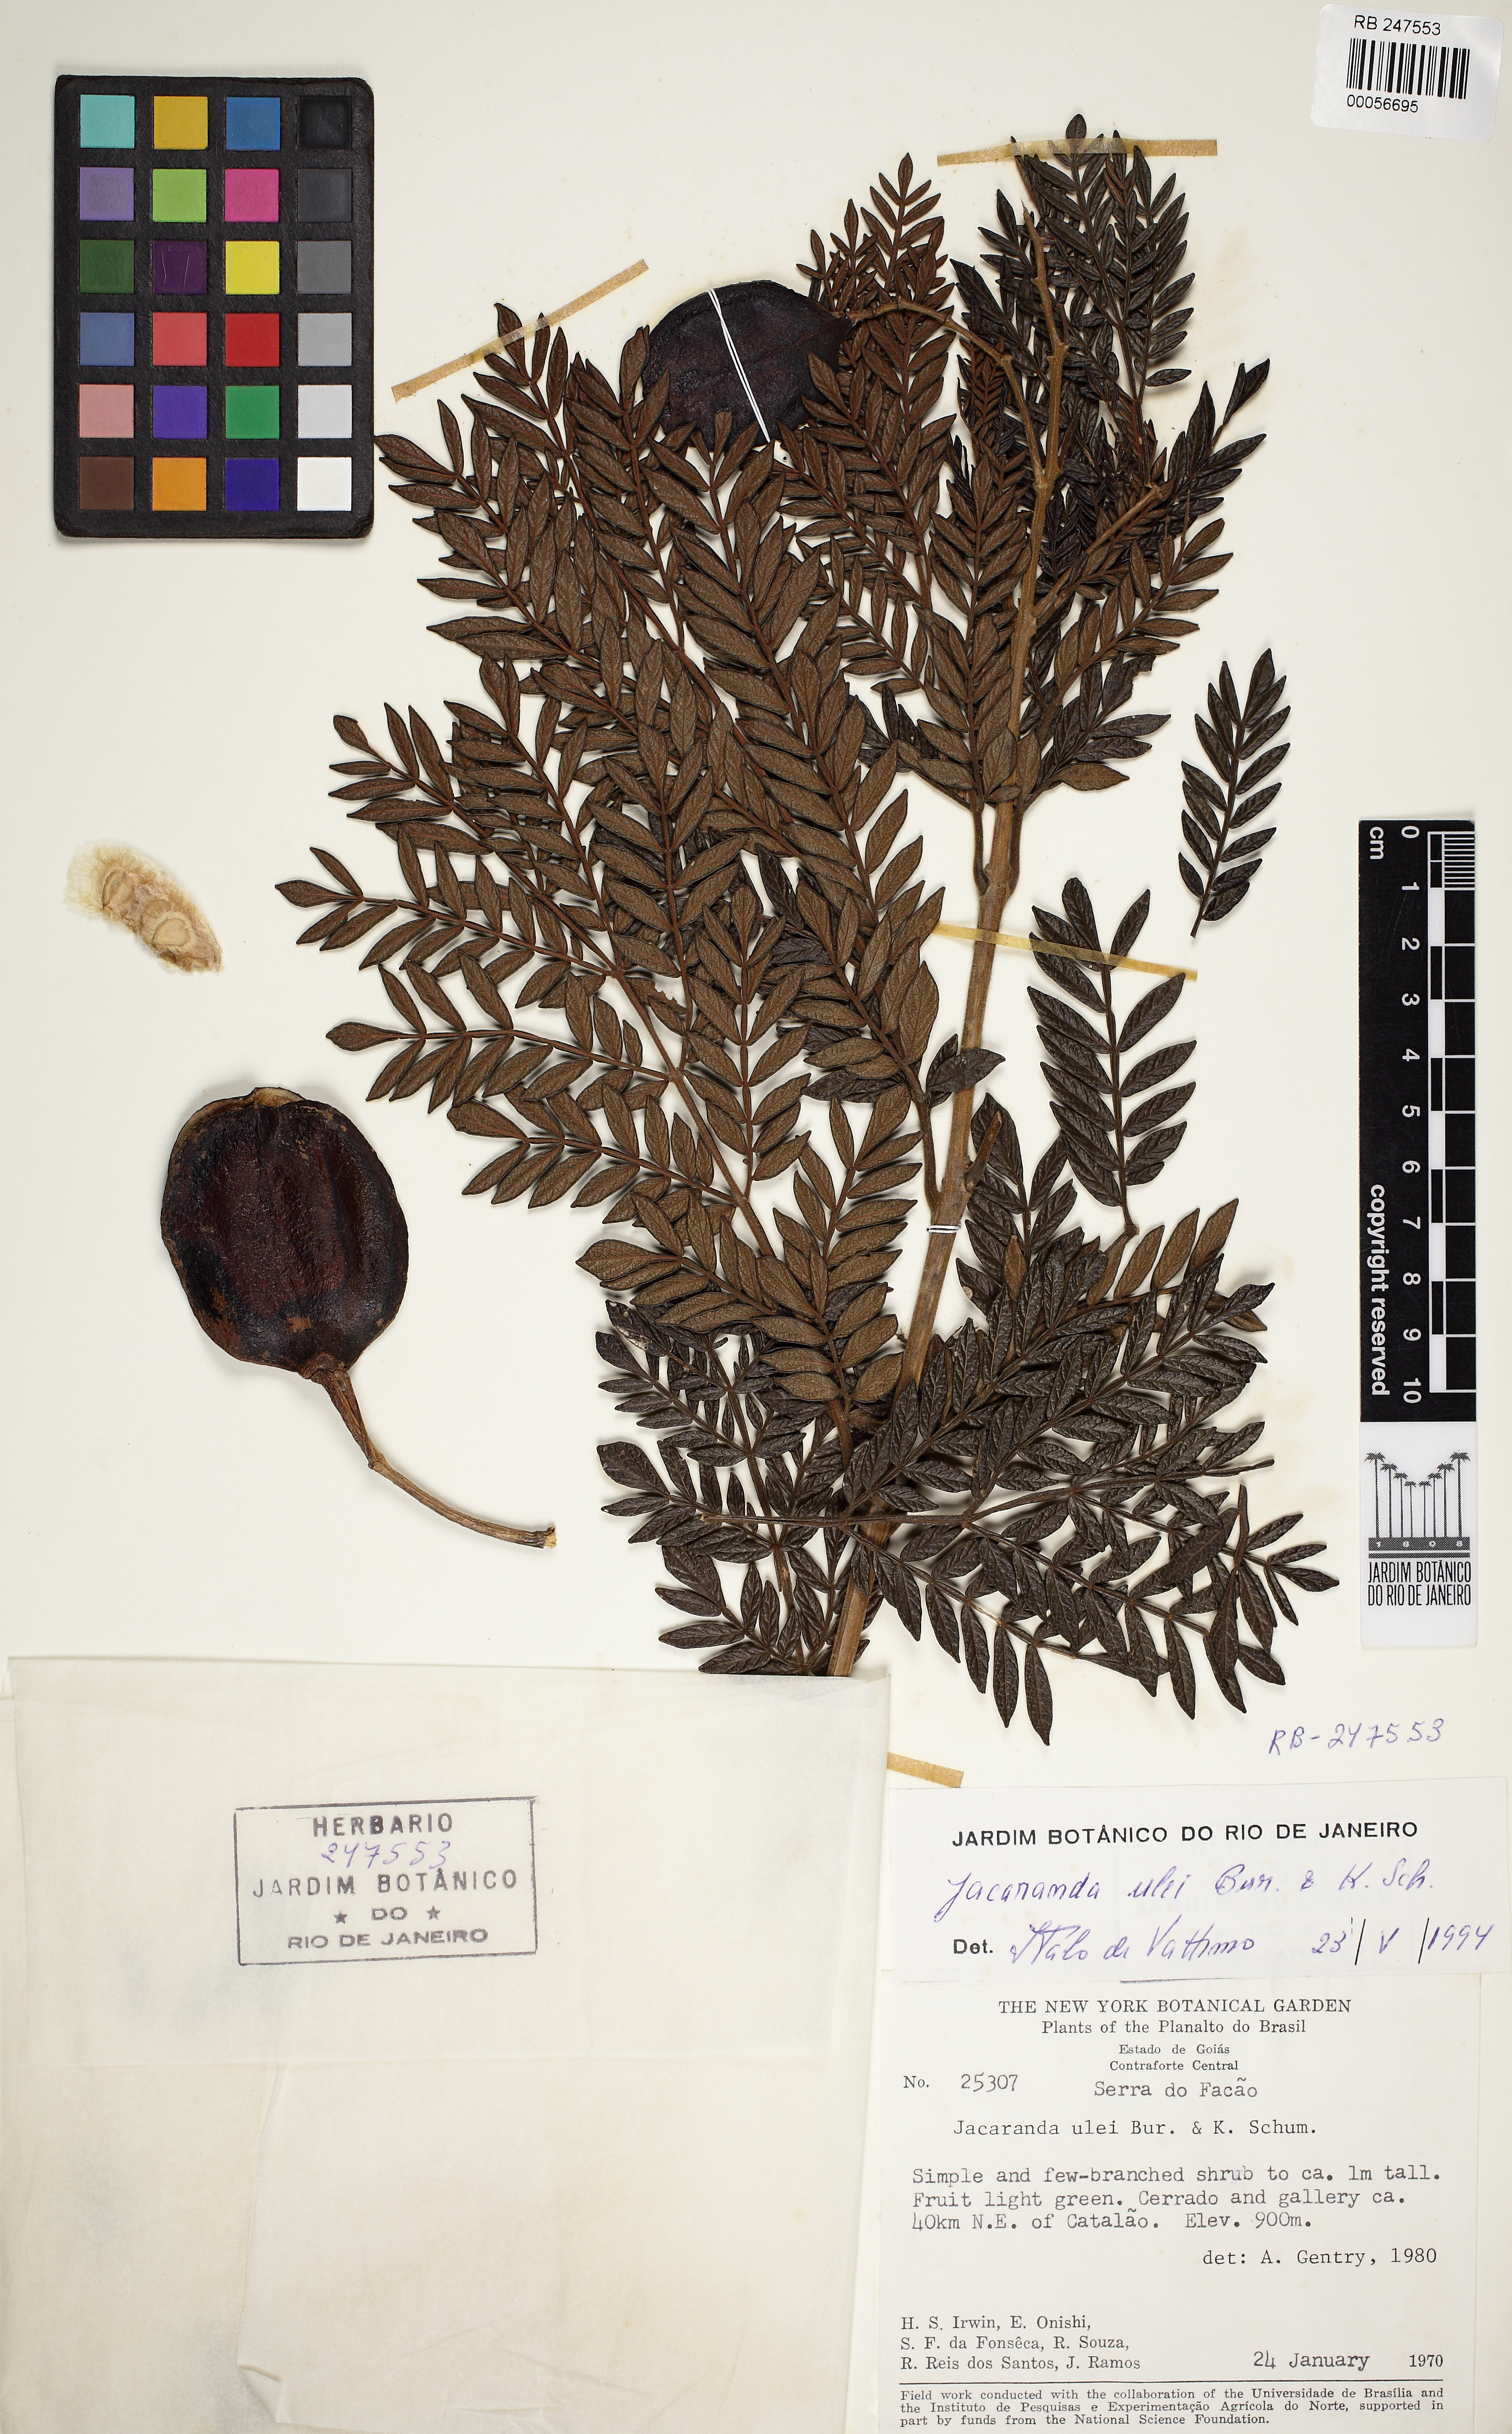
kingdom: Plantae
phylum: Tracheophyta
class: Magnoliopsida
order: Lamiales
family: Bignoniaceae
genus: Jacaranda
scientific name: Jacaranda ulei
